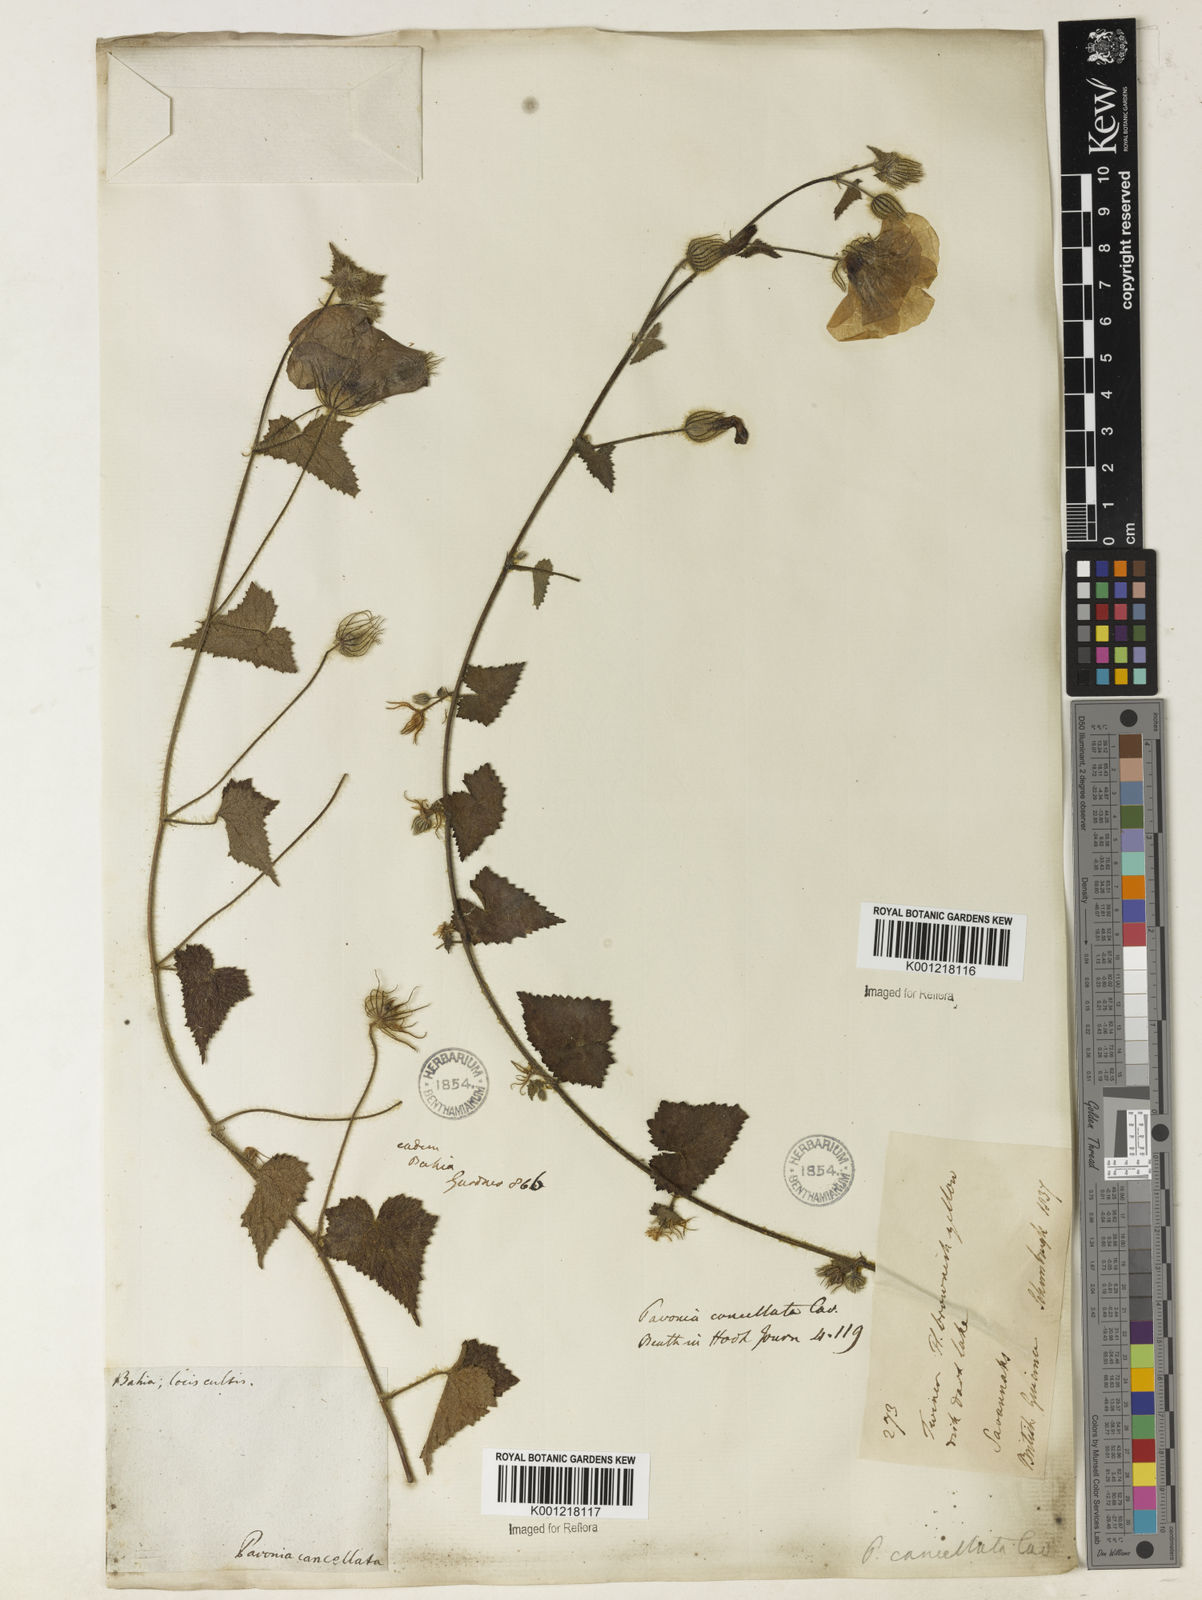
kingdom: Plantae
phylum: Tracheophyta
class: Magnoliopsida
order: Malvales
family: Malvaceae
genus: Pavonia
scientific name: Pavonia cancellata
